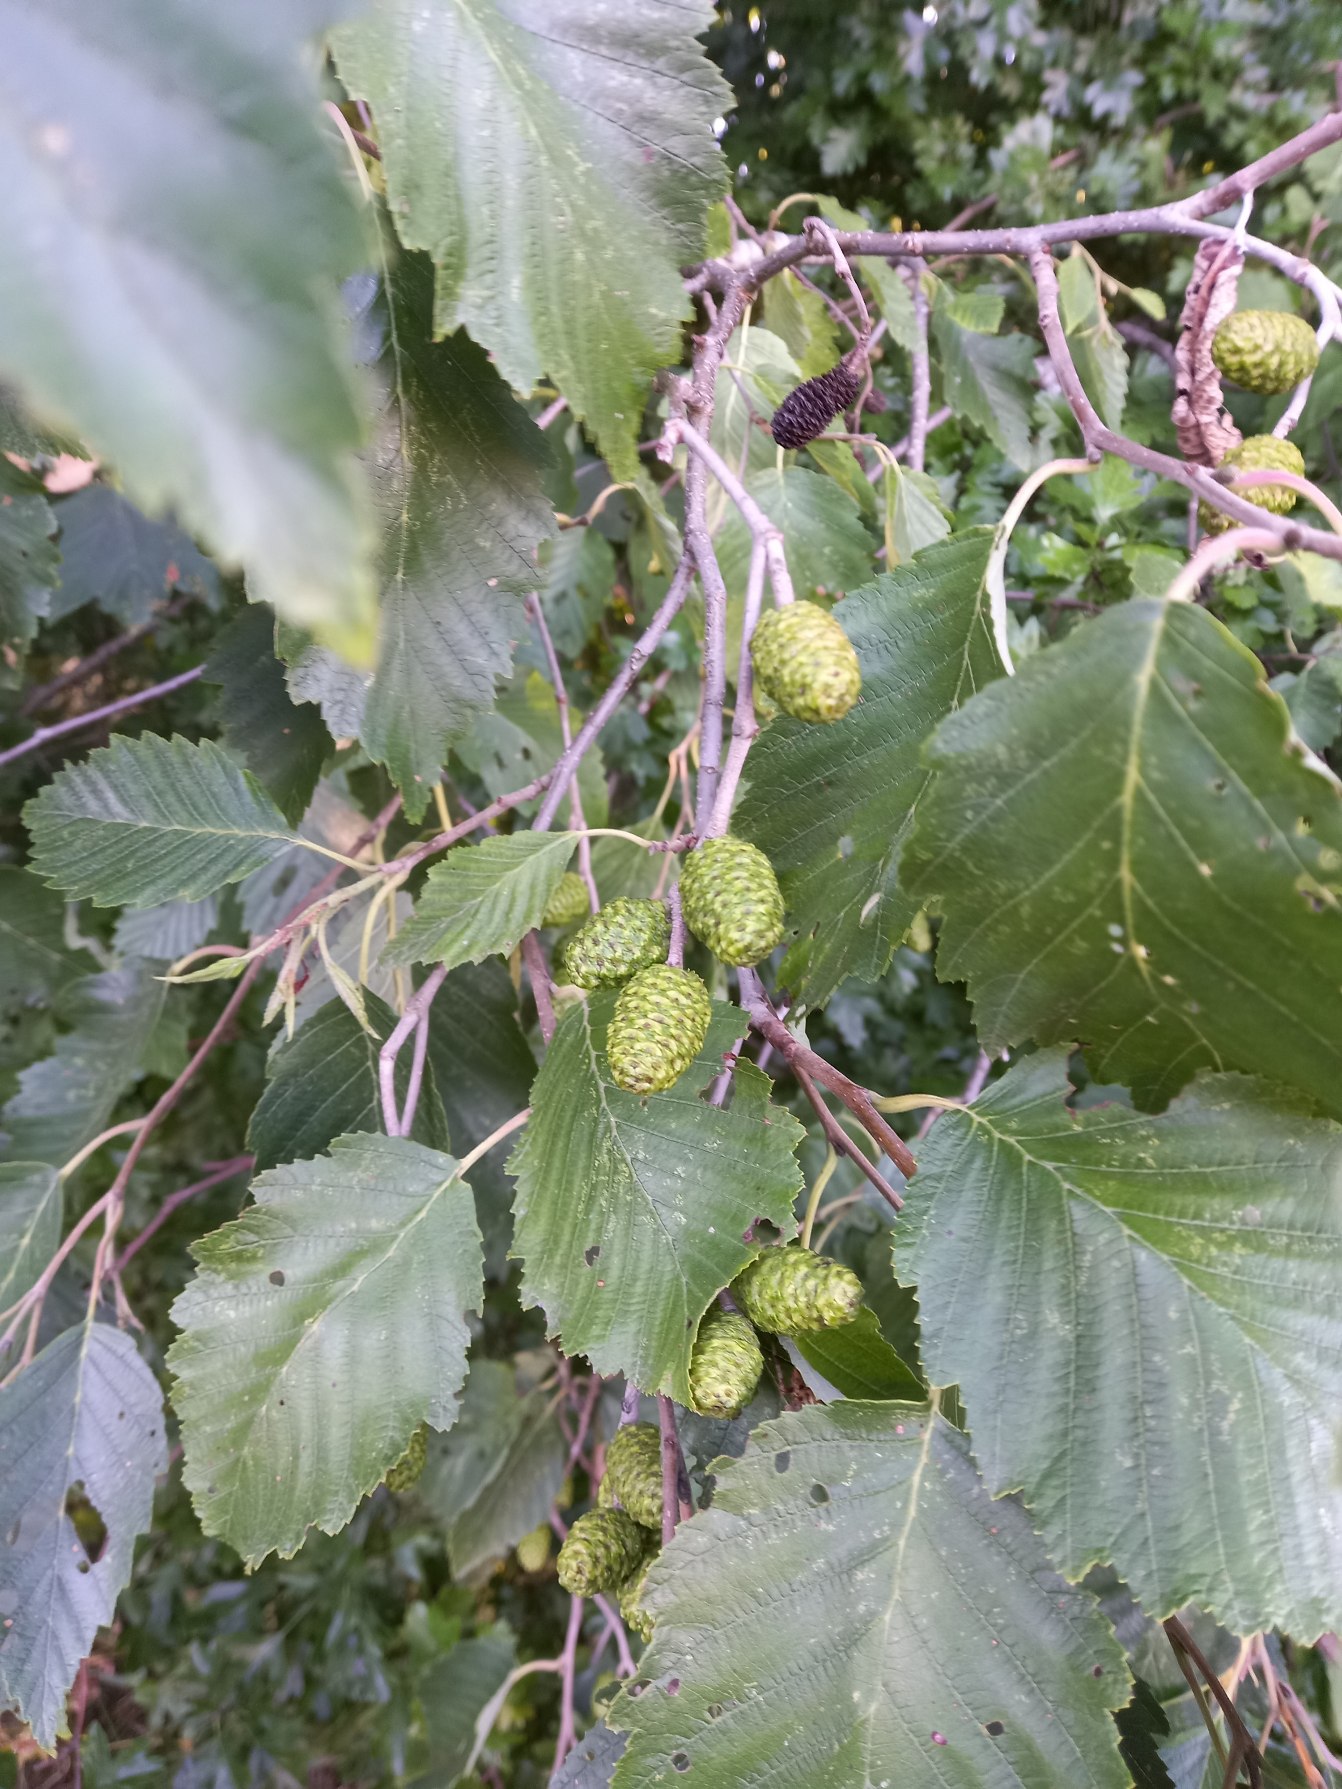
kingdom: Plantae
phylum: Tracheophyta
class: Magnoliopsida
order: Fagales
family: Betulaceae
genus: Alnus
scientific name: Alnus incana
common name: Grå-el/hvid-el
